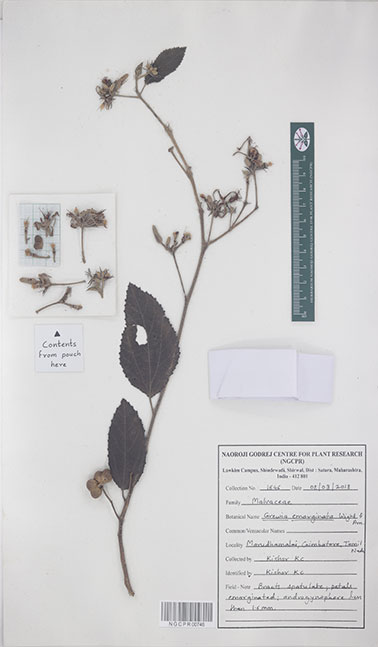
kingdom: Plantae
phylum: Tracheophyta
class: Magnoliopsida
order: Malvales
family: Malvaceae
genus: Grewia
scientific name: Grewia oppositifolia
